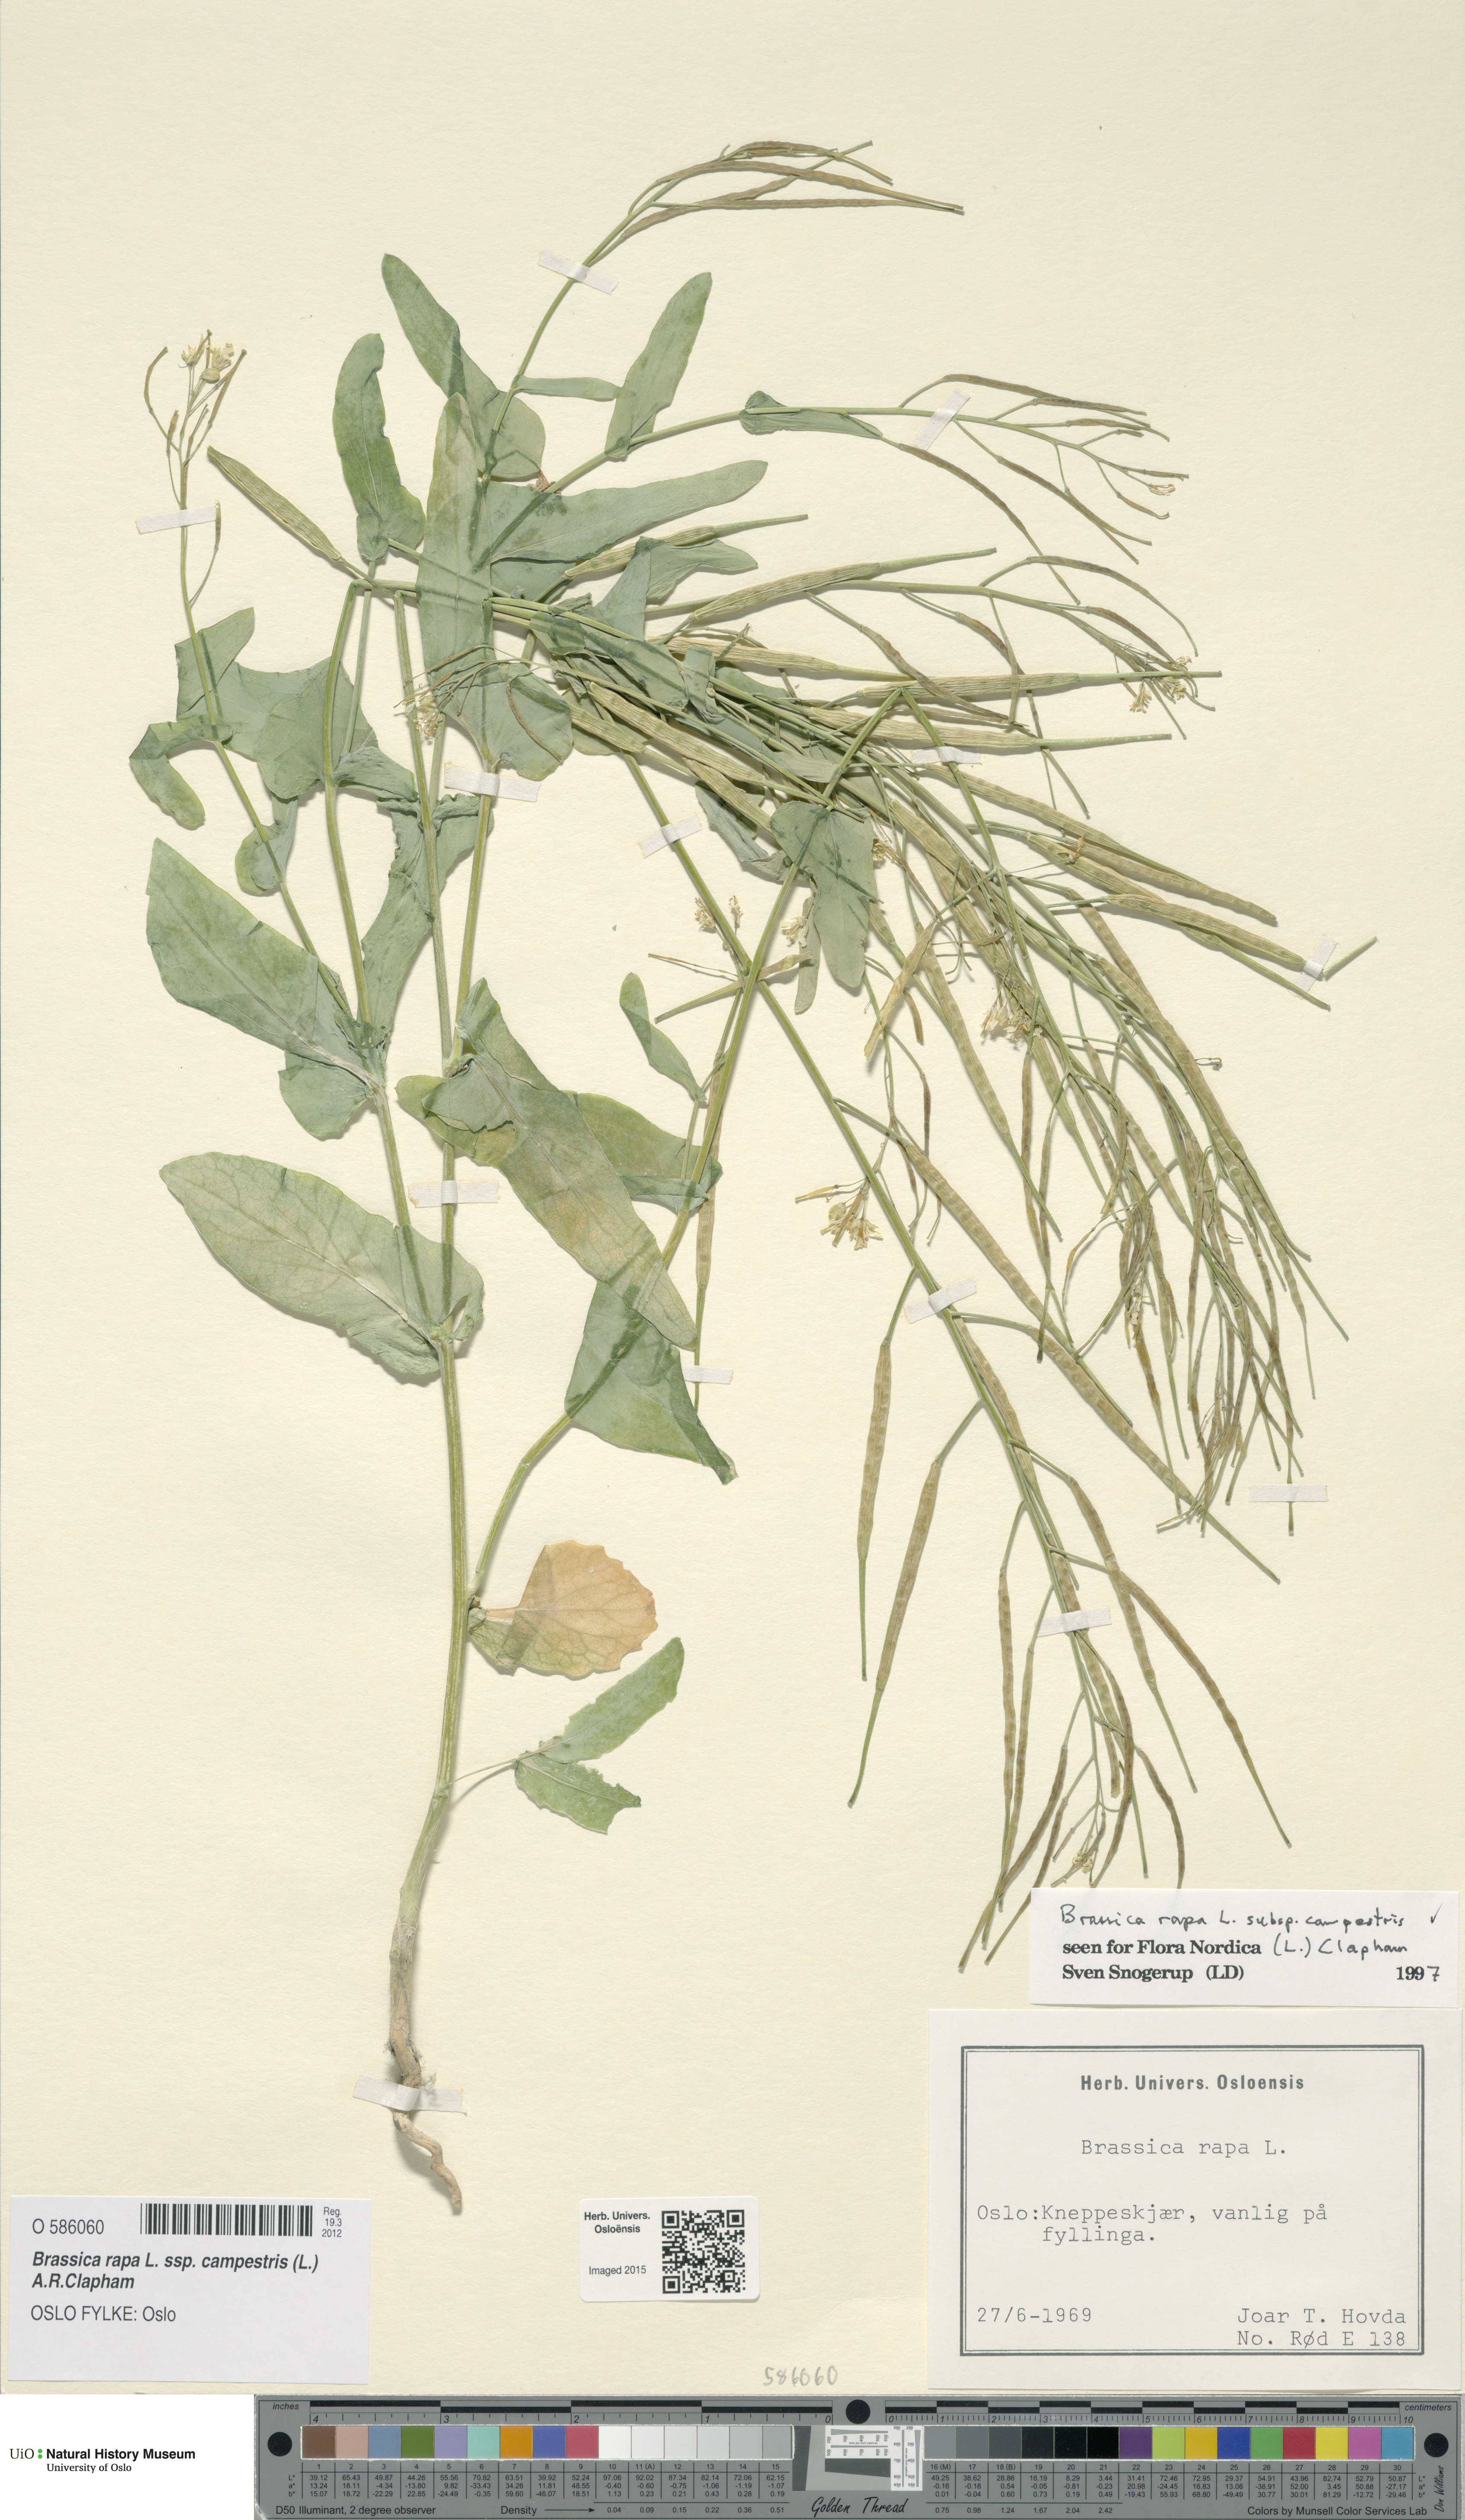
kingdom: Plantae
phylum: Tracheophyta
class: Magnoliopsida
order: Brassicales
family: Brassicaceae
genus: Brassica
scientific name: Brassica rapa
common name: Field mustard
